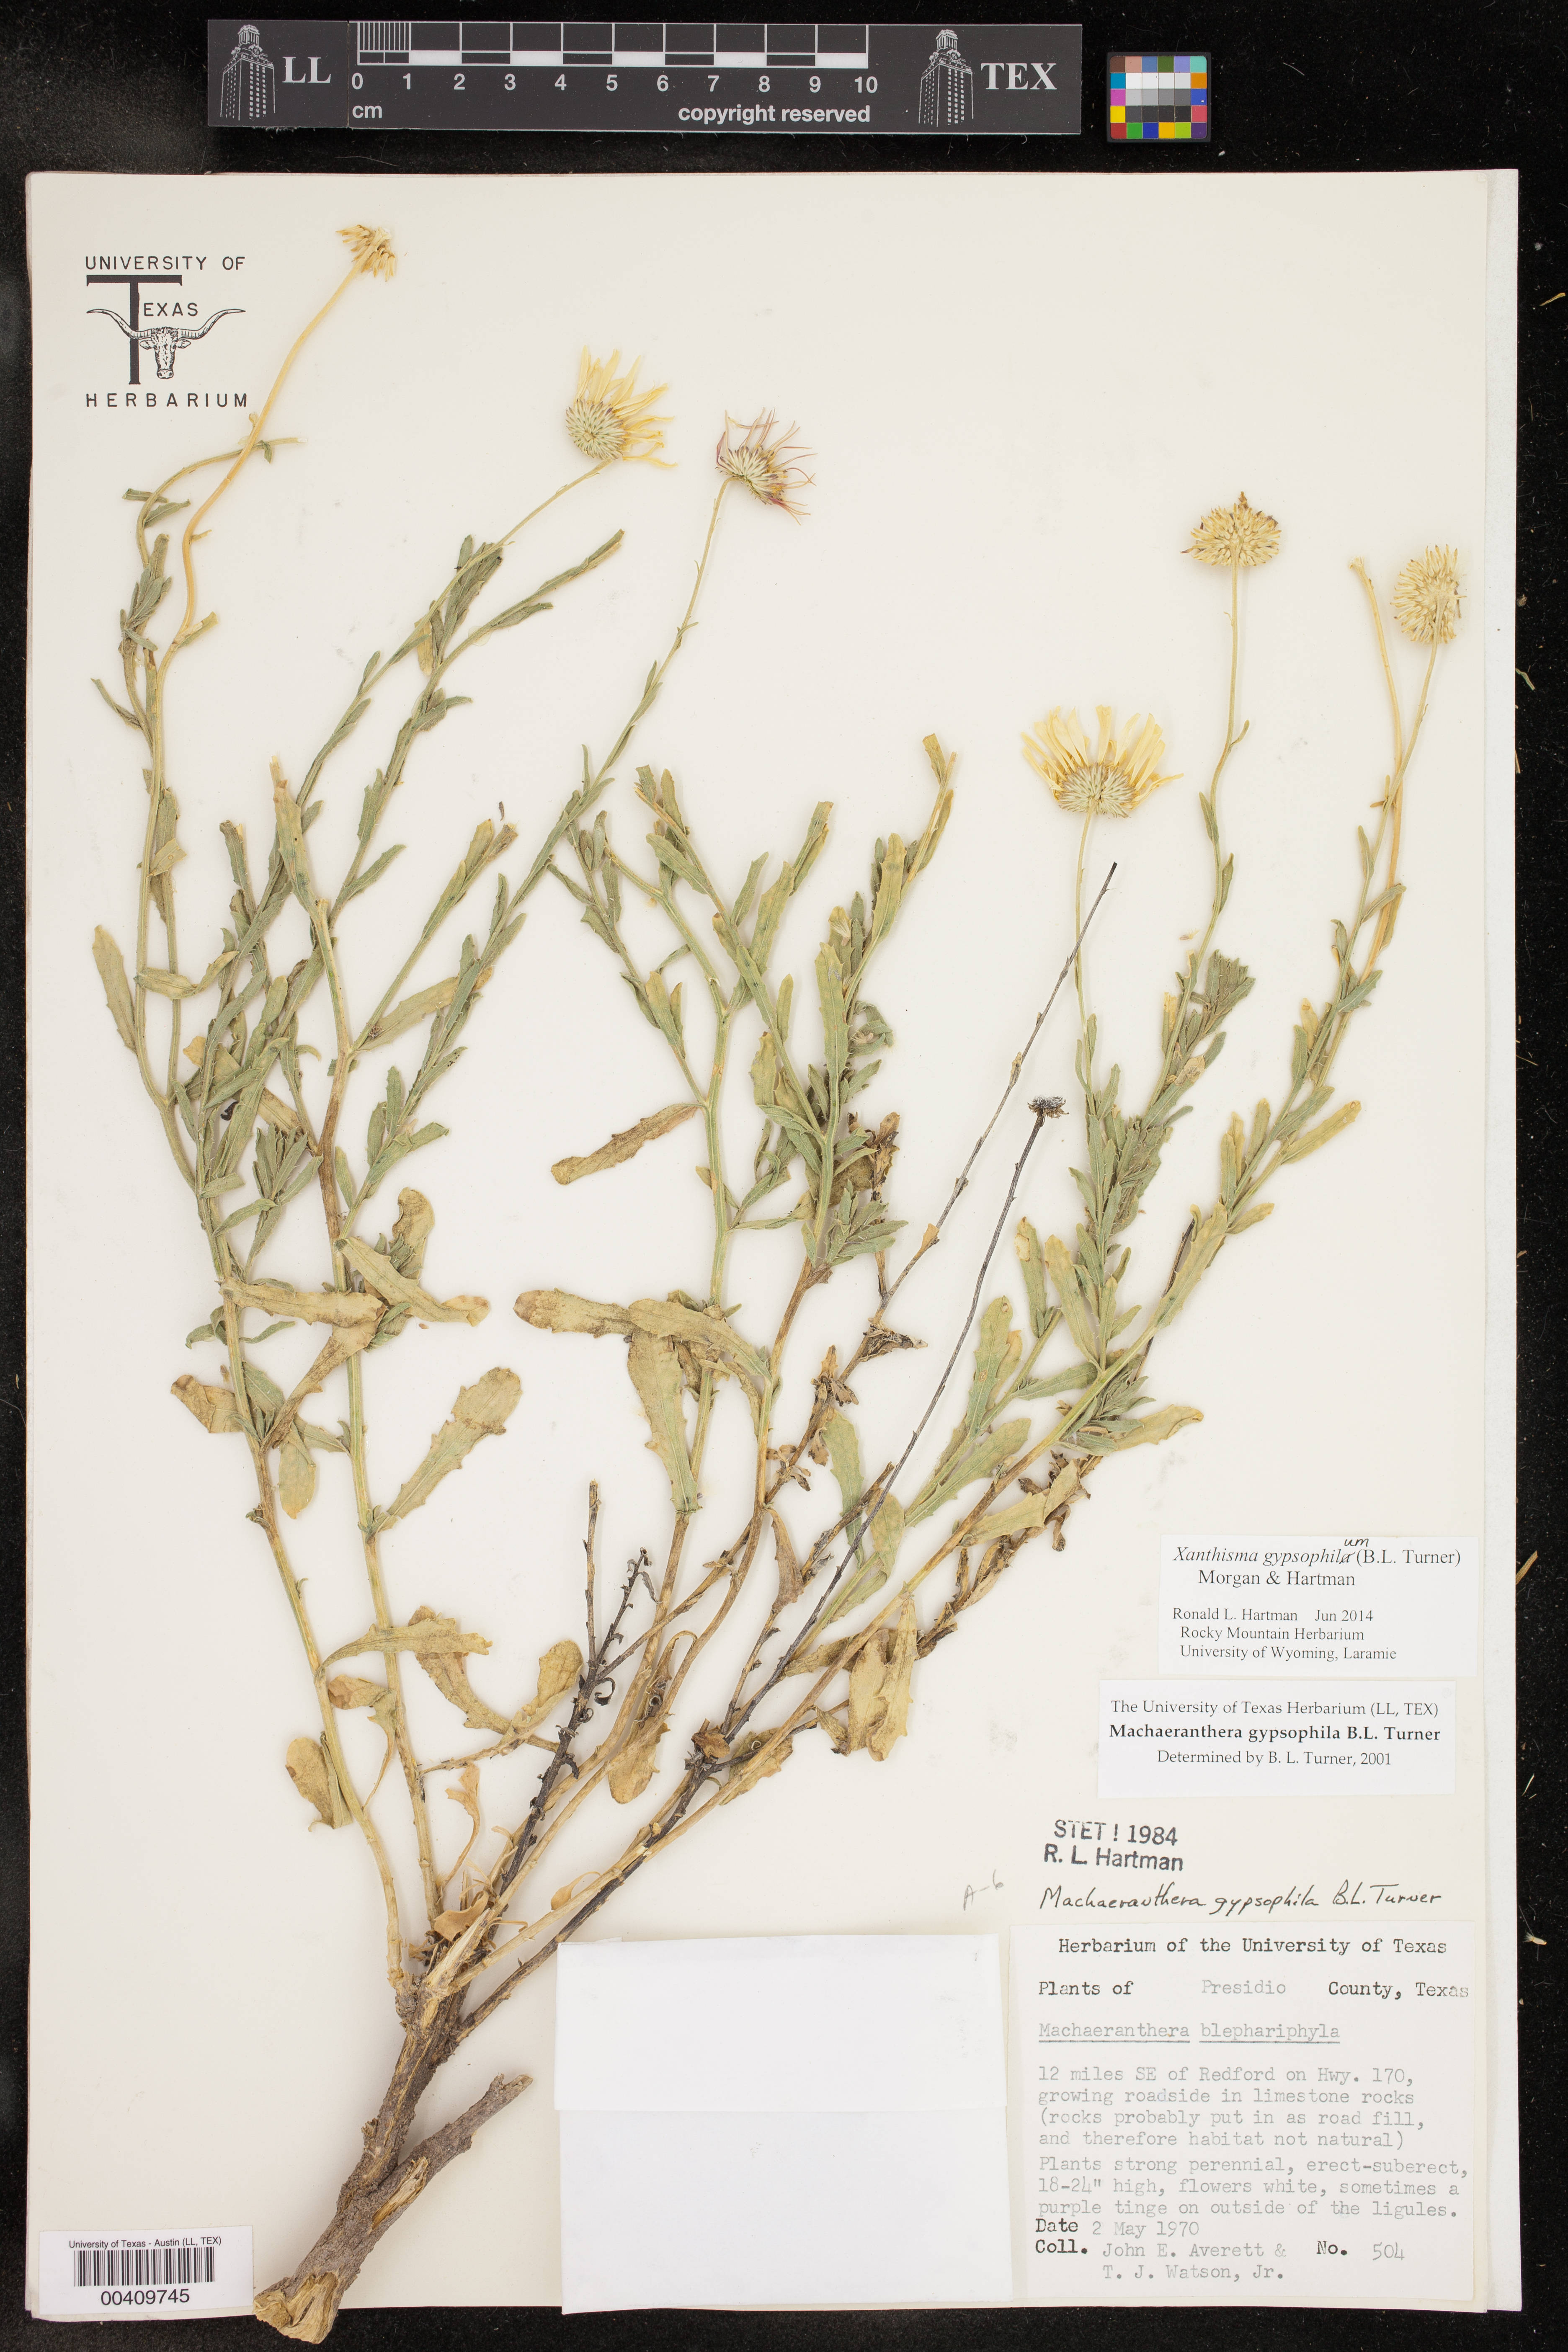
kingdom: Plantae
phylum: Tracheophyta
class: Magnoliopsida
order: Asterales
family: Asteraceae
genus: Xanthisma
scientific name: Xanthisma gypsophilum
